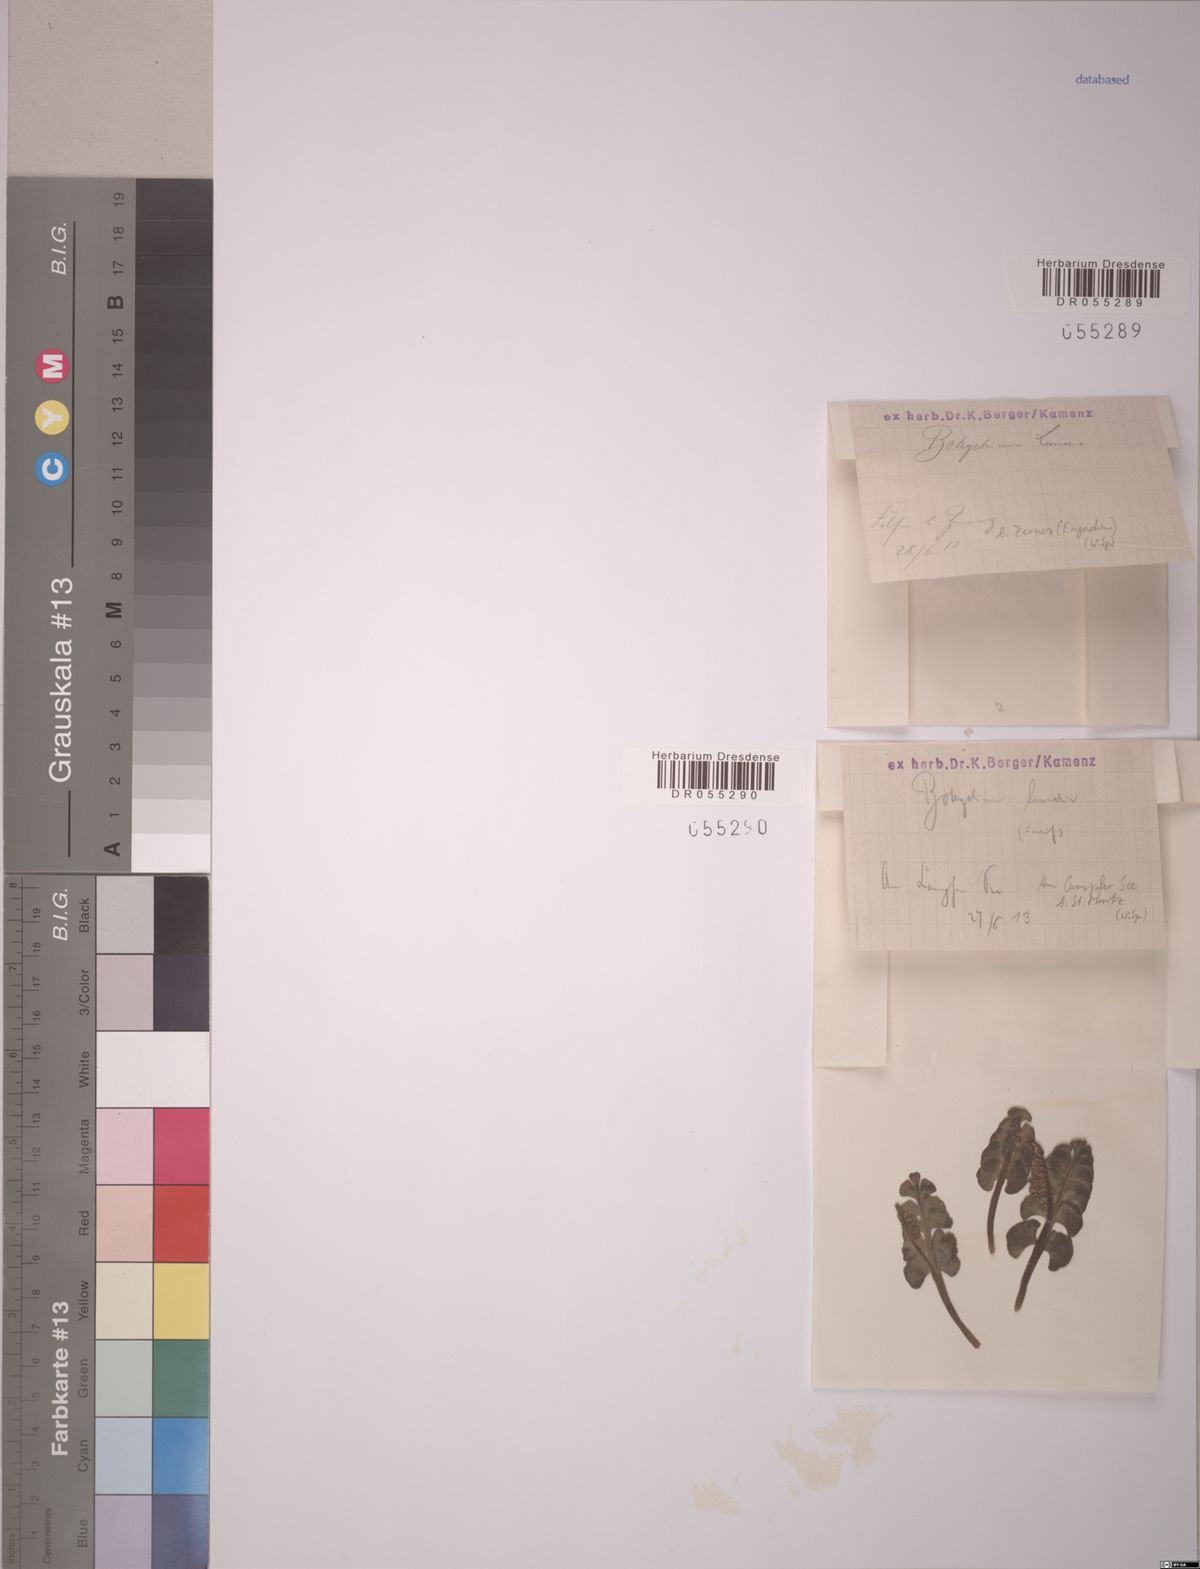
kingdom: Plantae
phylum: Tracheophyta
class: Polypodiopsida
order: Ophioglossales
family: Ophioglossaceae
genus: Botrychium
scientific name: Botrychium lunaria
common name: Moonwort
